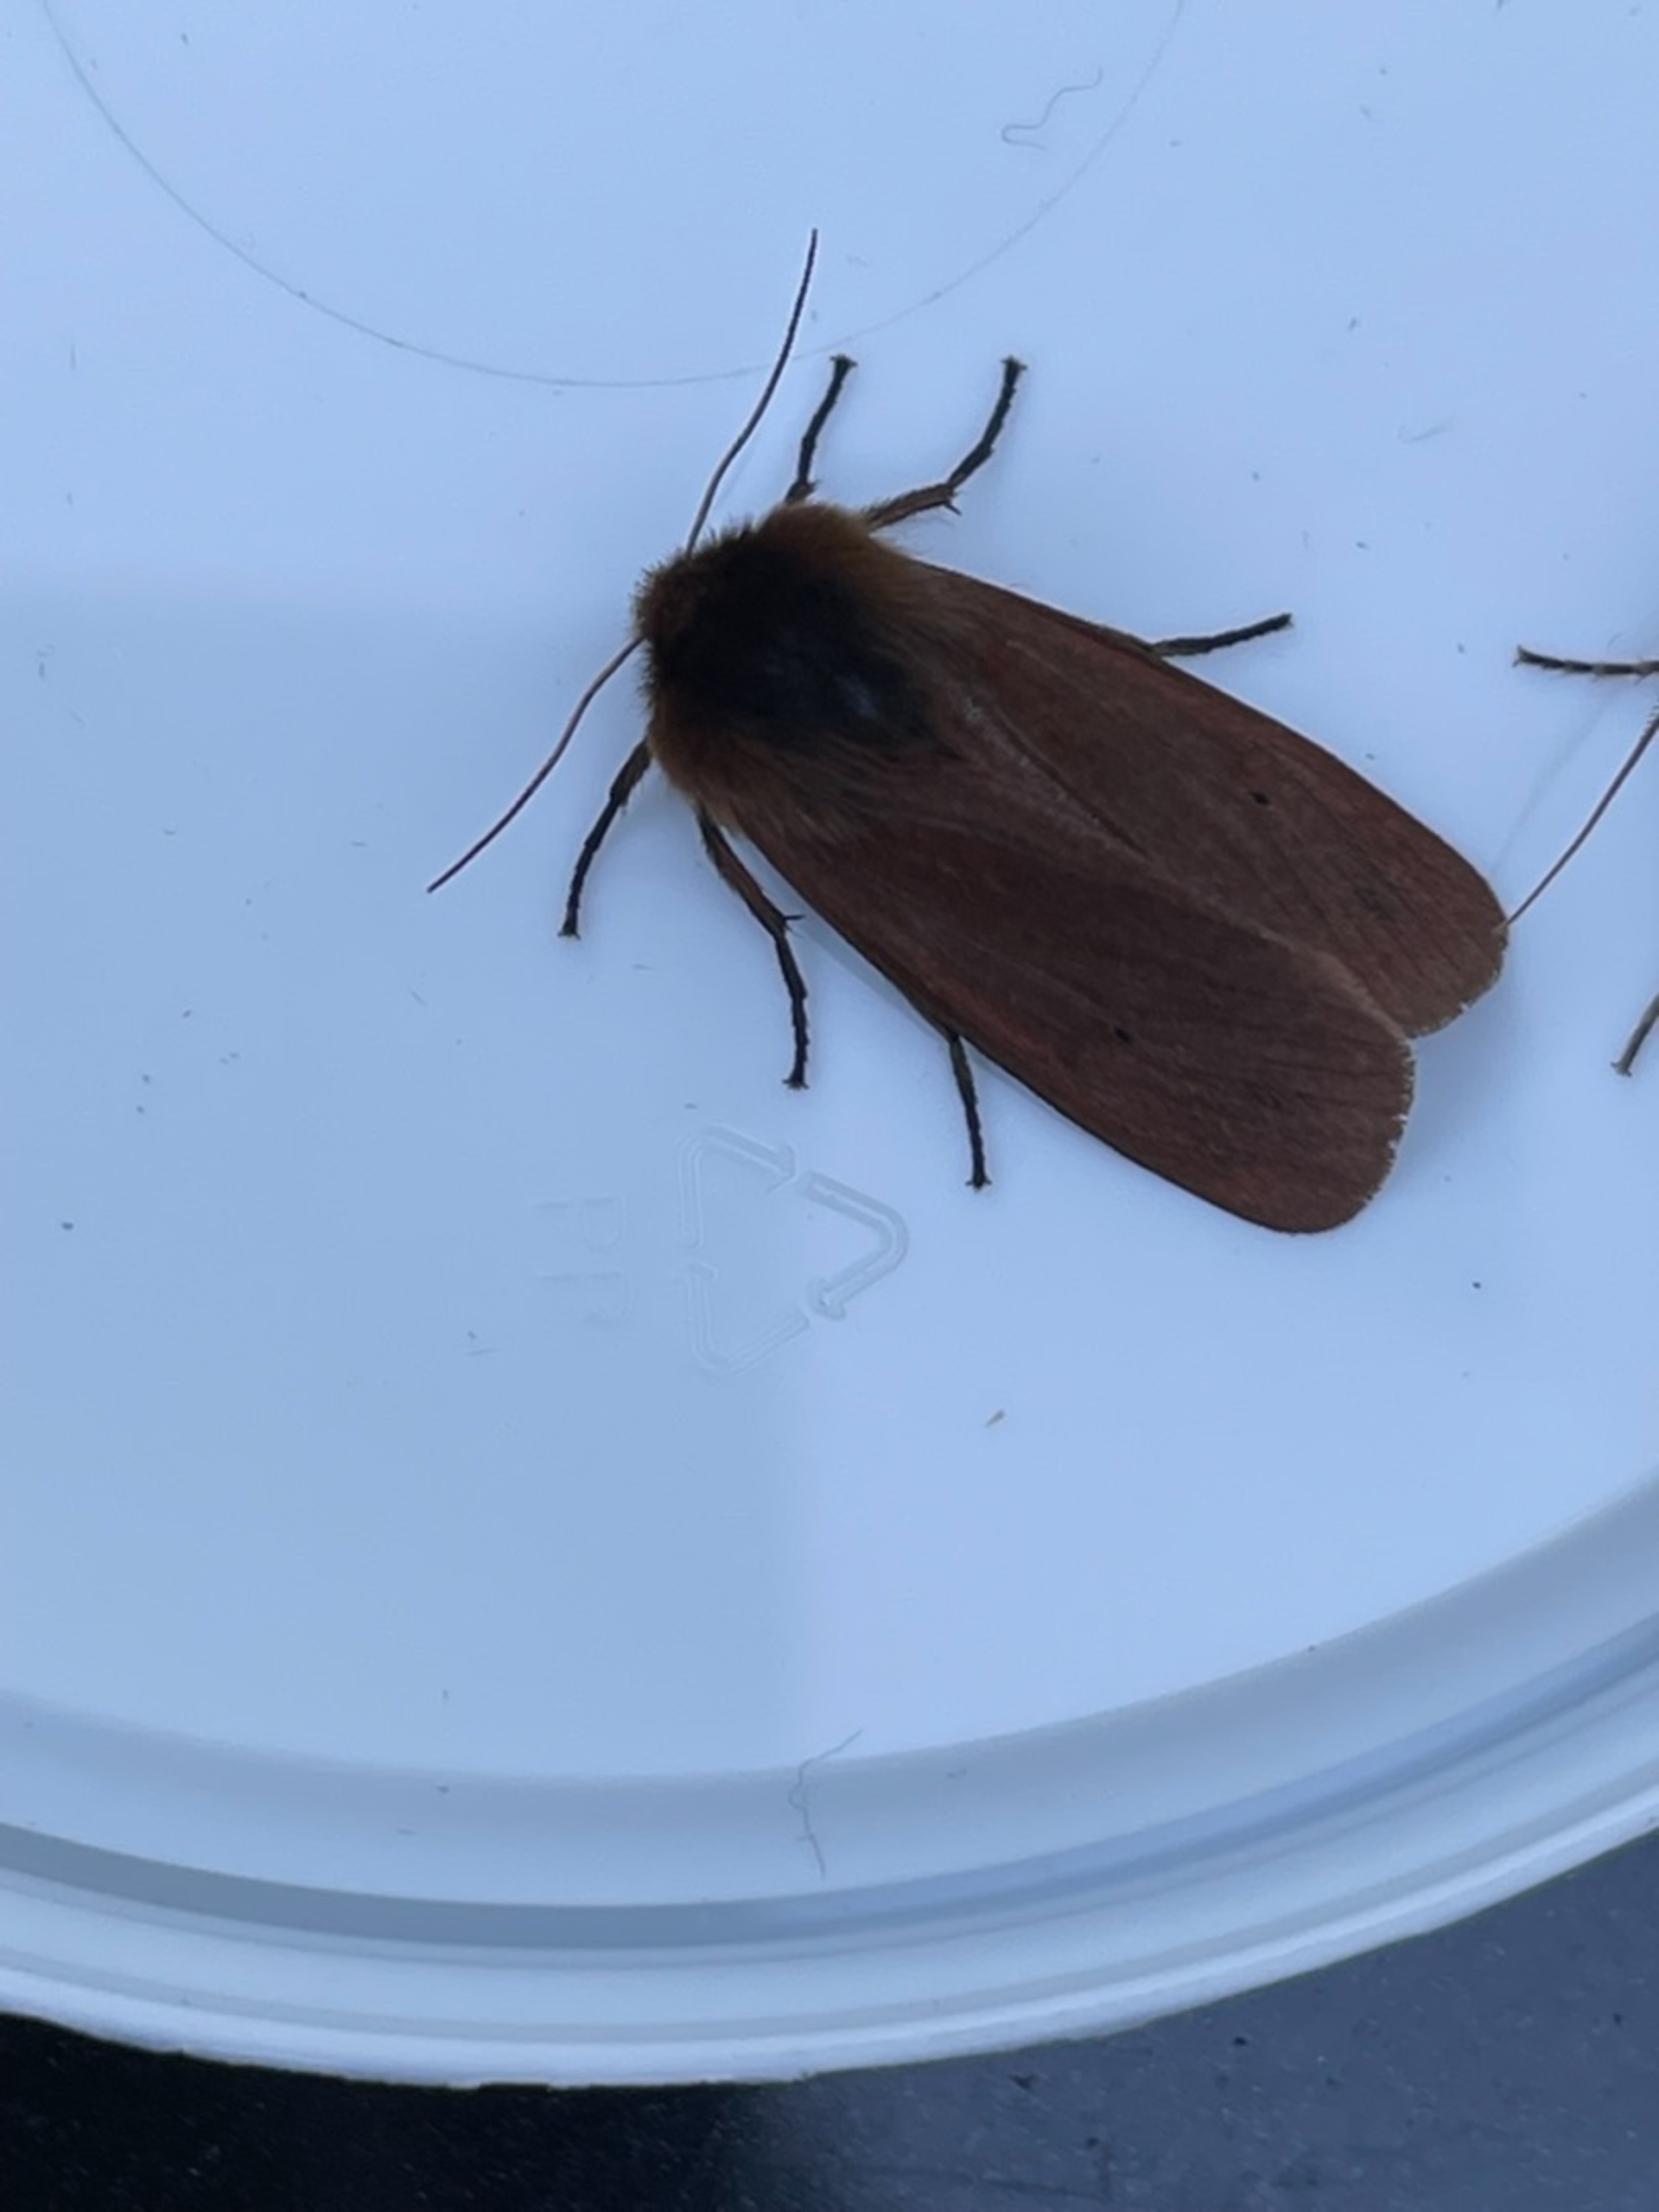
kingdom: Animalia
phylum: Arthropoda
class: Insecta
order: Lepidoptera
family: Erebidae
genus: Phragmatobia
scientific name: Phragmatobia fuliginosa
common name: Kanelbjørn
